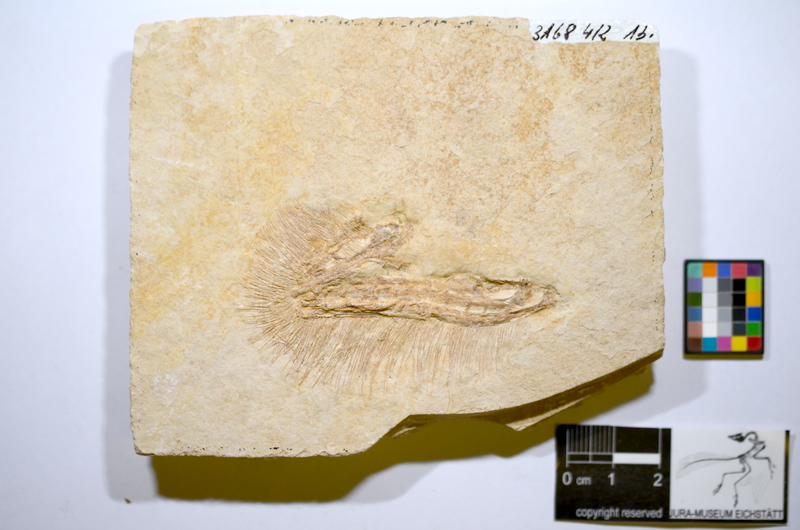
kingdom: Animalia
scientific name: Animalia
